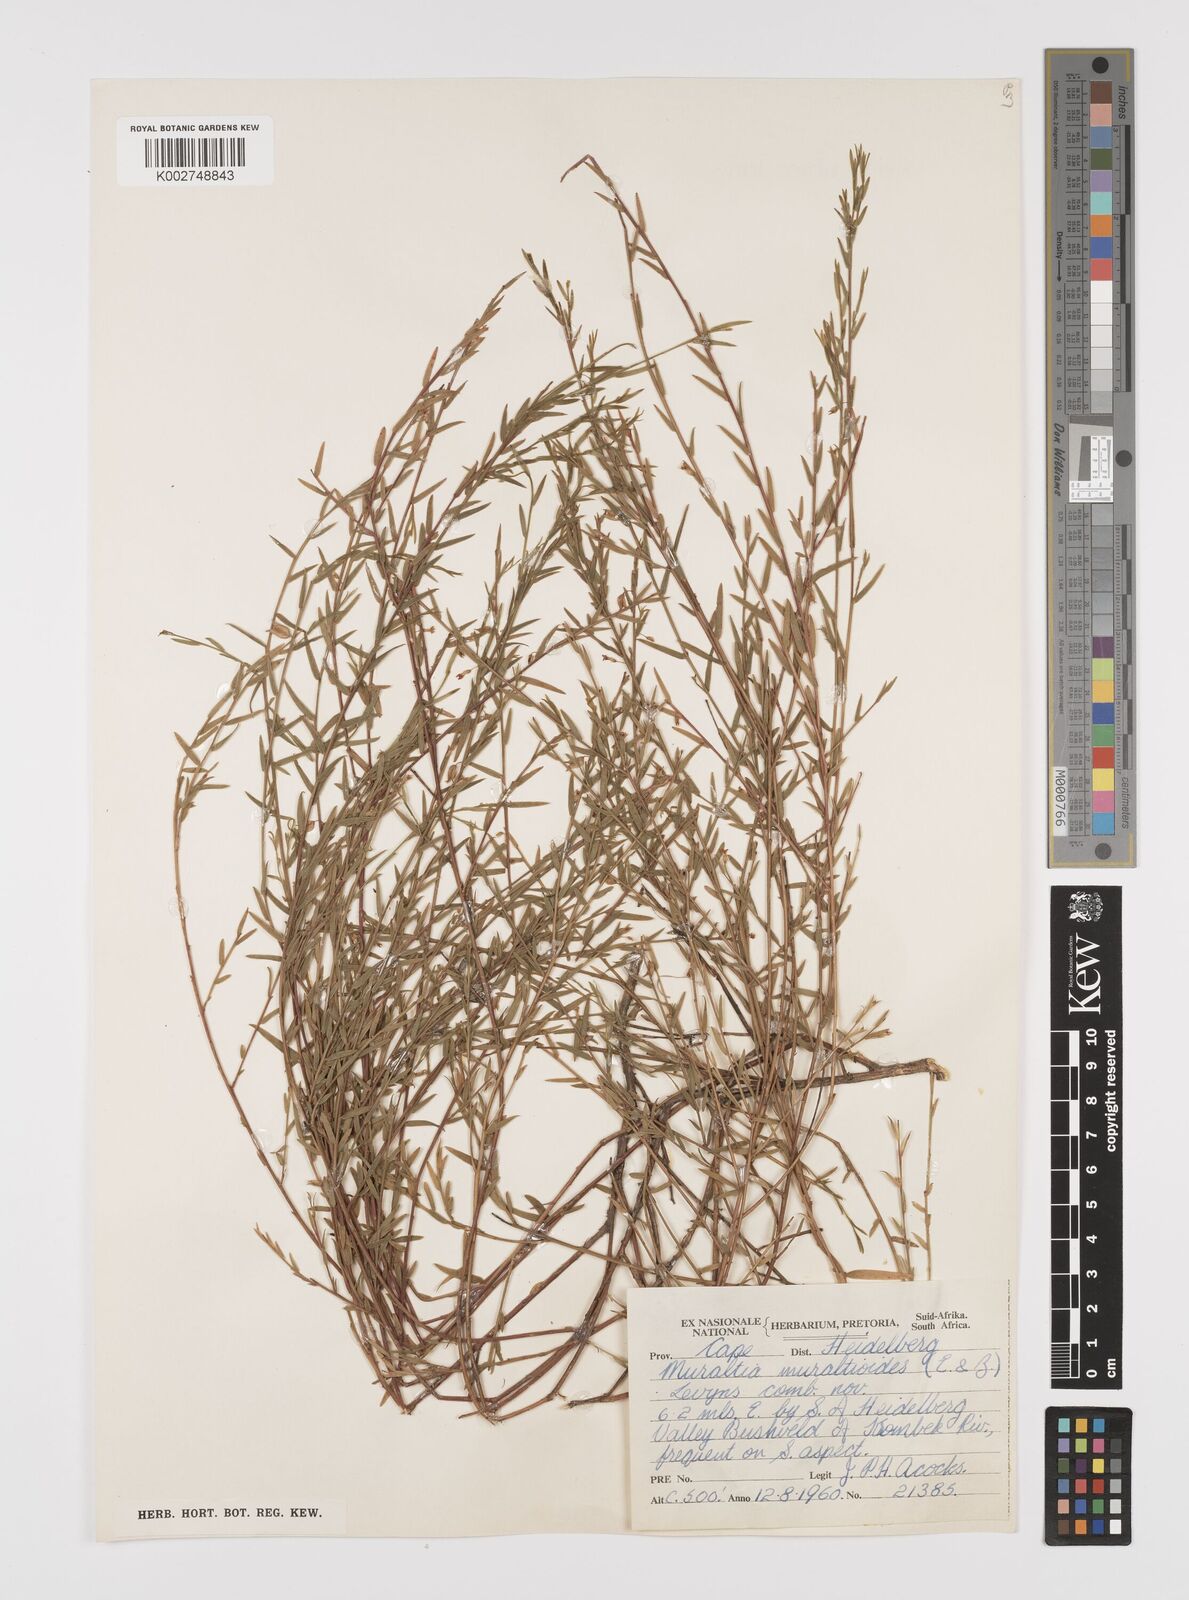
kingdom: Plantae
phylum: Tracheophyta
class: Magnoliopsida
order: Fabales
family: Polygalaceae
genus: Muraltia
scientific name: Muraltia muraltioides
